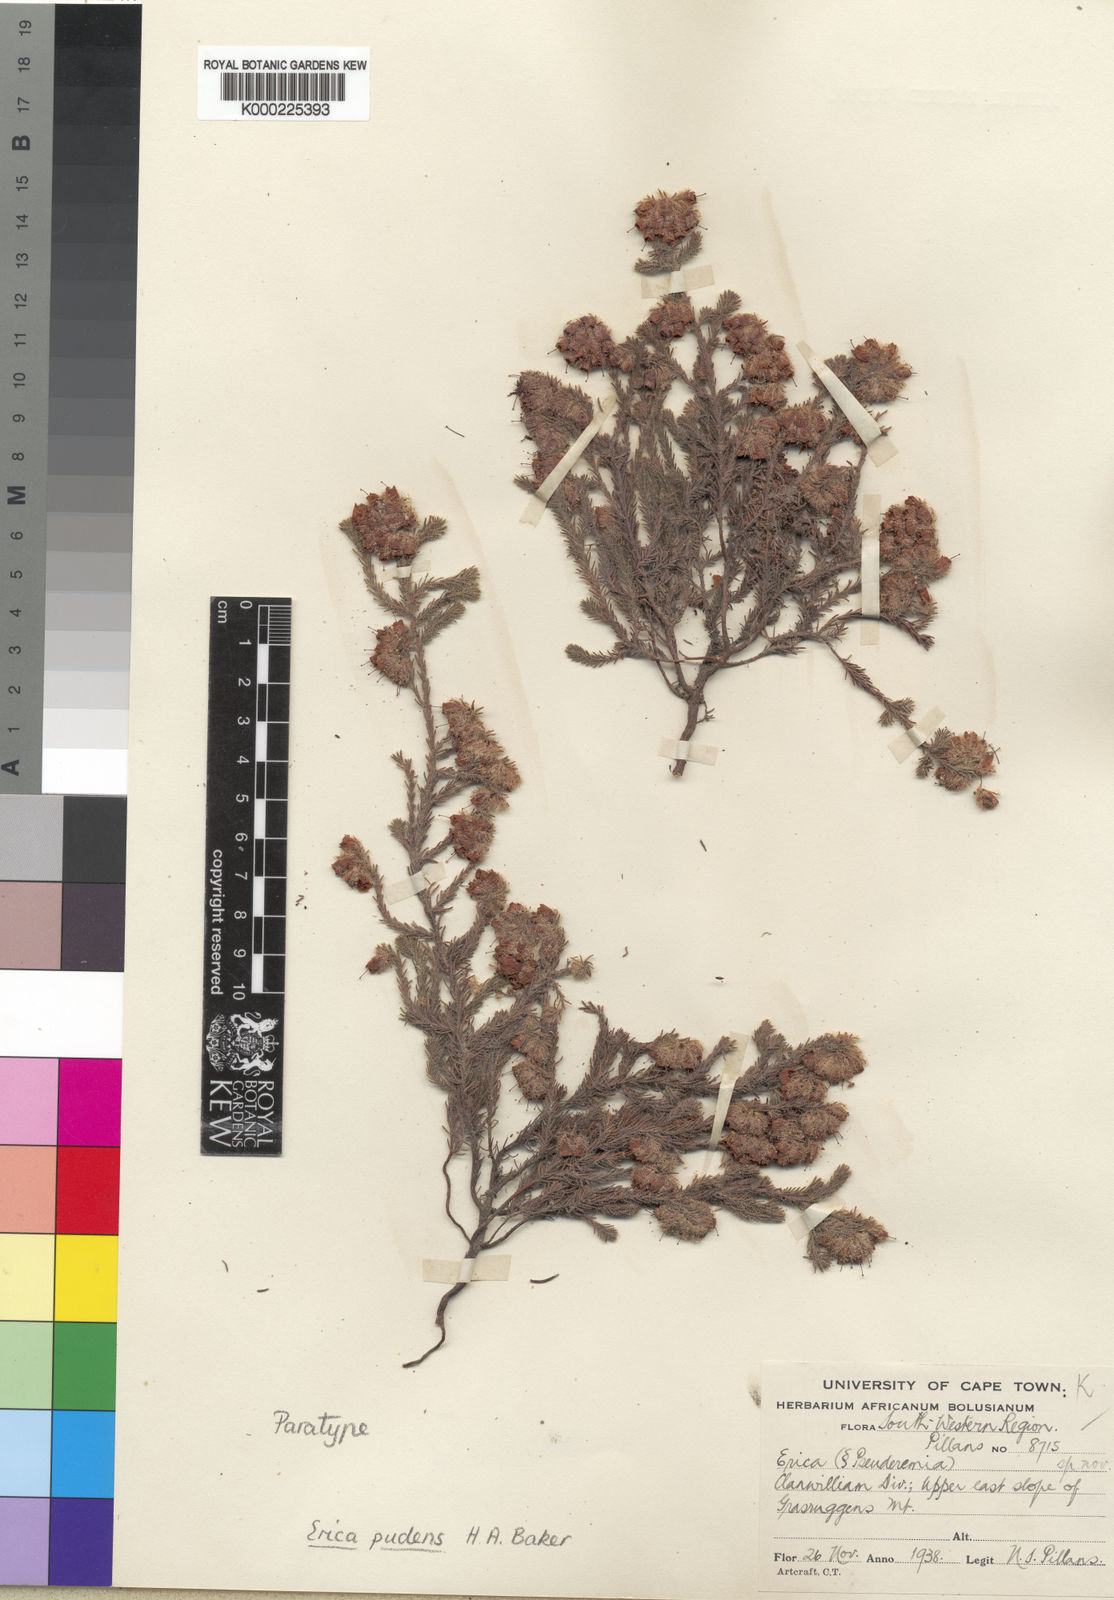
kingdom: Plantae
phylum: Tracheophyta
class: Magnoliopsida
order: Ericales
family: Ericaceae
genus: Erica
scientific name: Erica pudens
